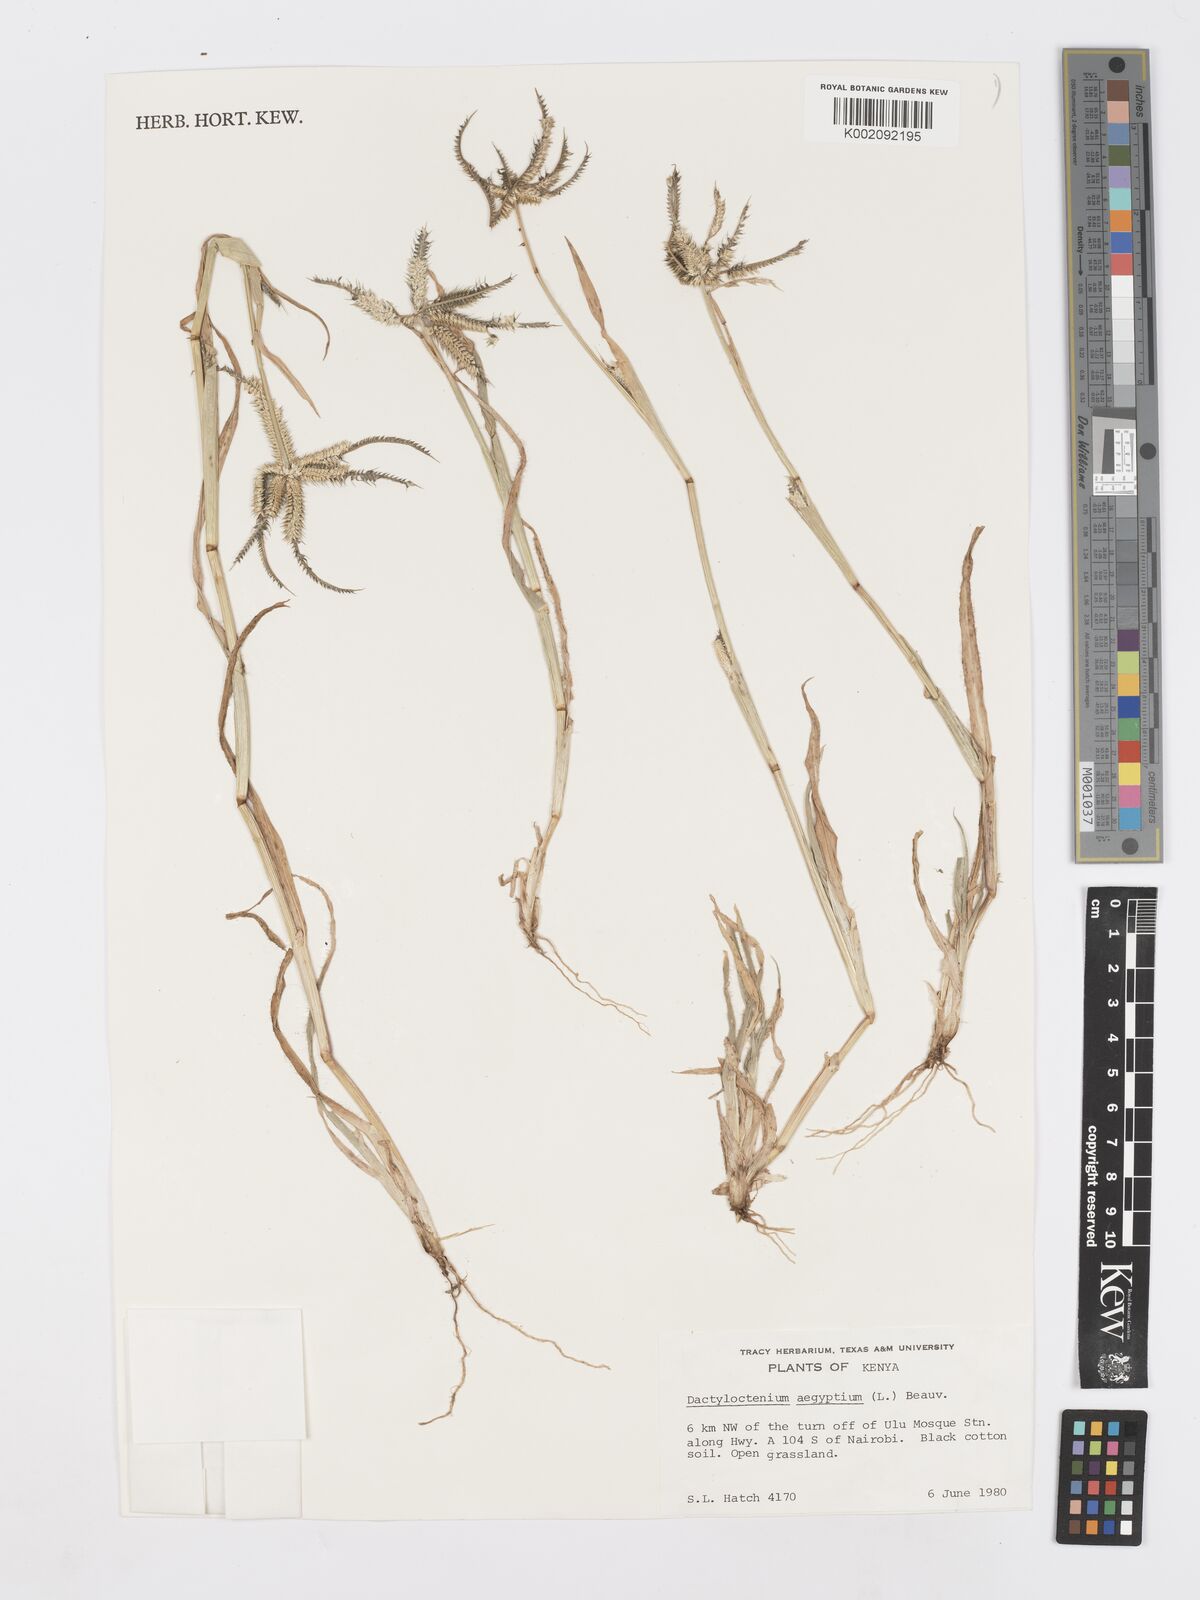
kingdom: Plantae
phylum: Tracheophyta
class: Liliopsida
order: Poales
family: Poaceae
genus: Dactyloctenium
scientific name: Dactyloctenium aegyptium
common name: Egyptian grass
